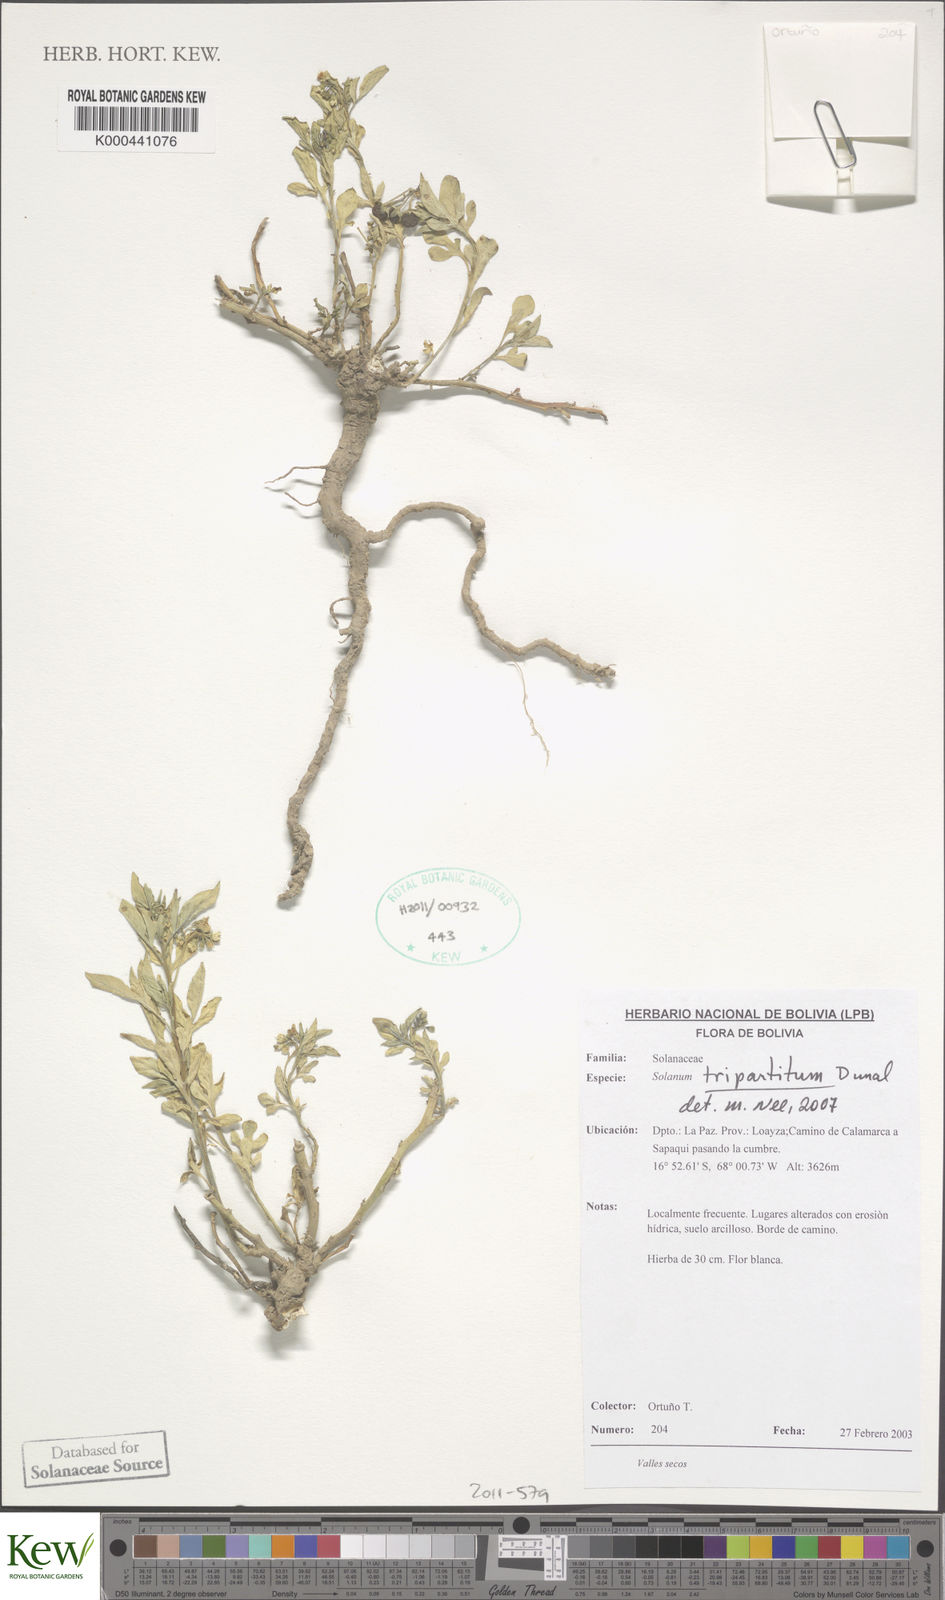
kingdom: Plantae
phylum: Tracheophyta
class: Magnoliopsida
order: Solanales
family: Solanaceae
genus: Solanum
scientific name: Solanum tripartitum
